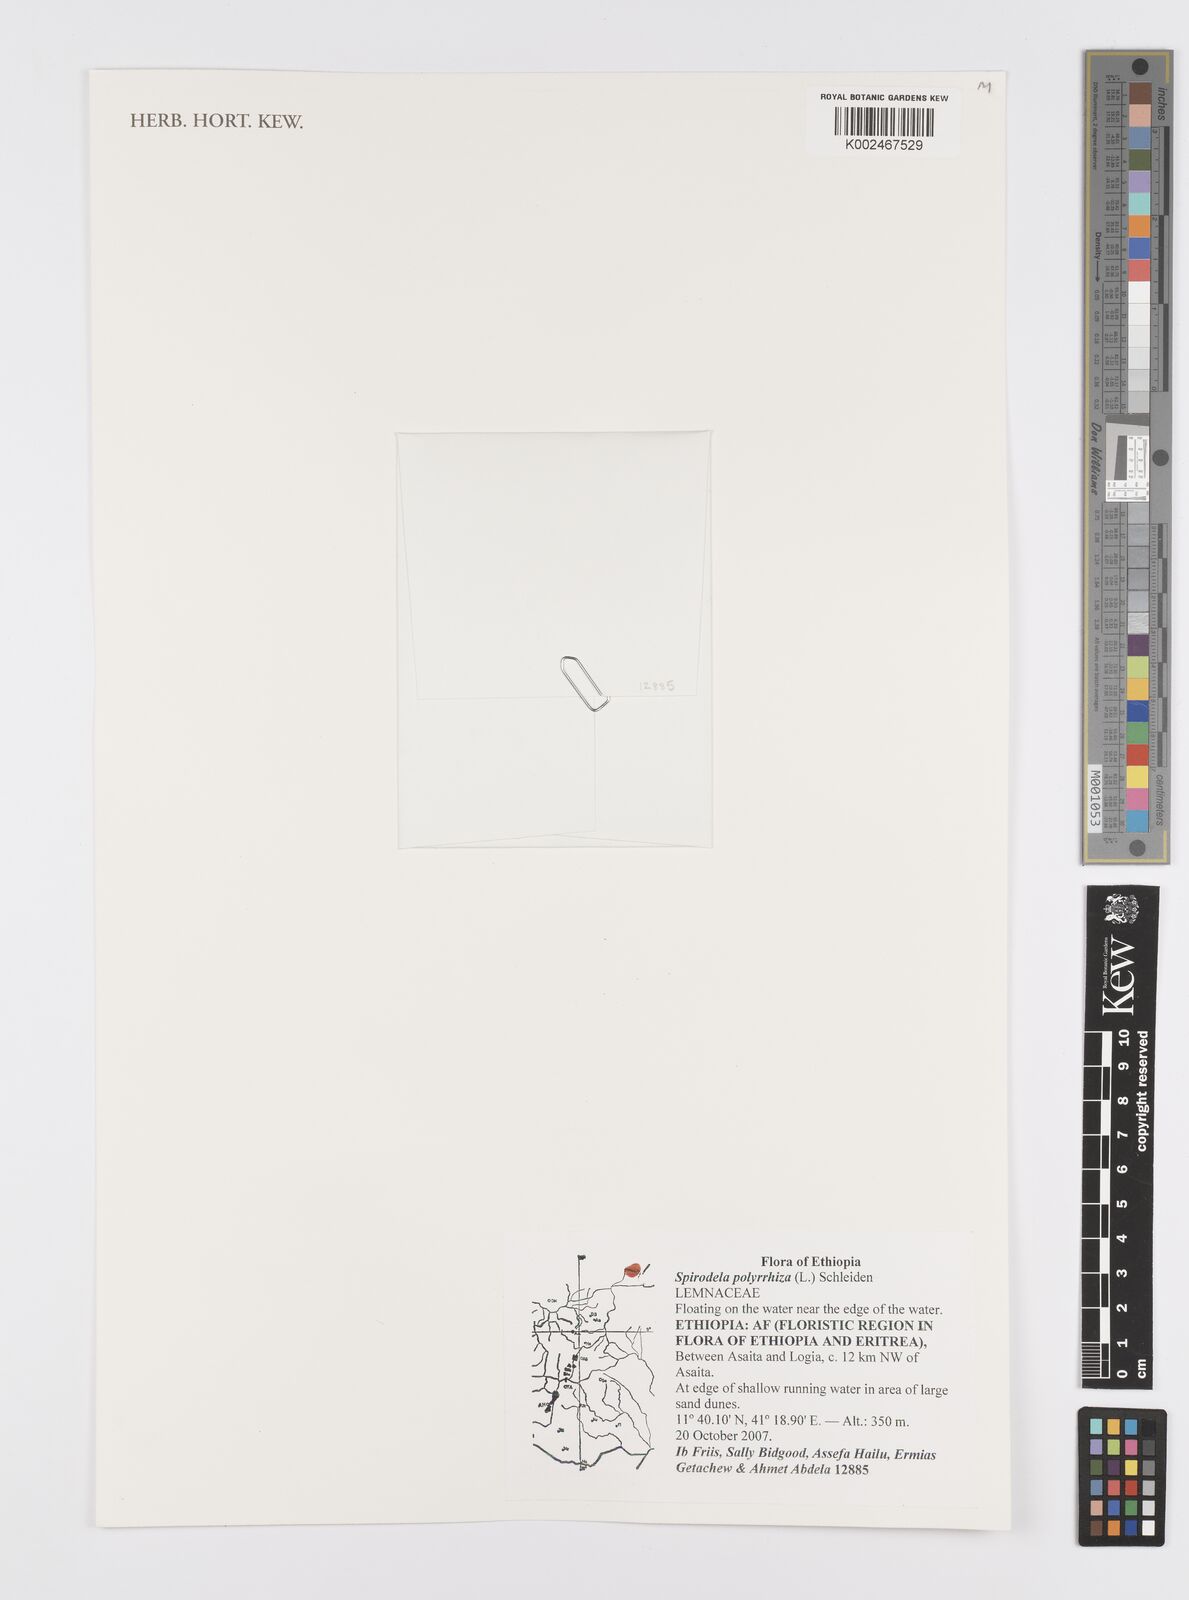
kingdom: Plantae
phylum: Tracheophyta
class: Liliopsida
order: Alismatales
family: Araceae
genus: Spirodela
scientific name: Spirodela polyrhiza
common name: Great duckweed
